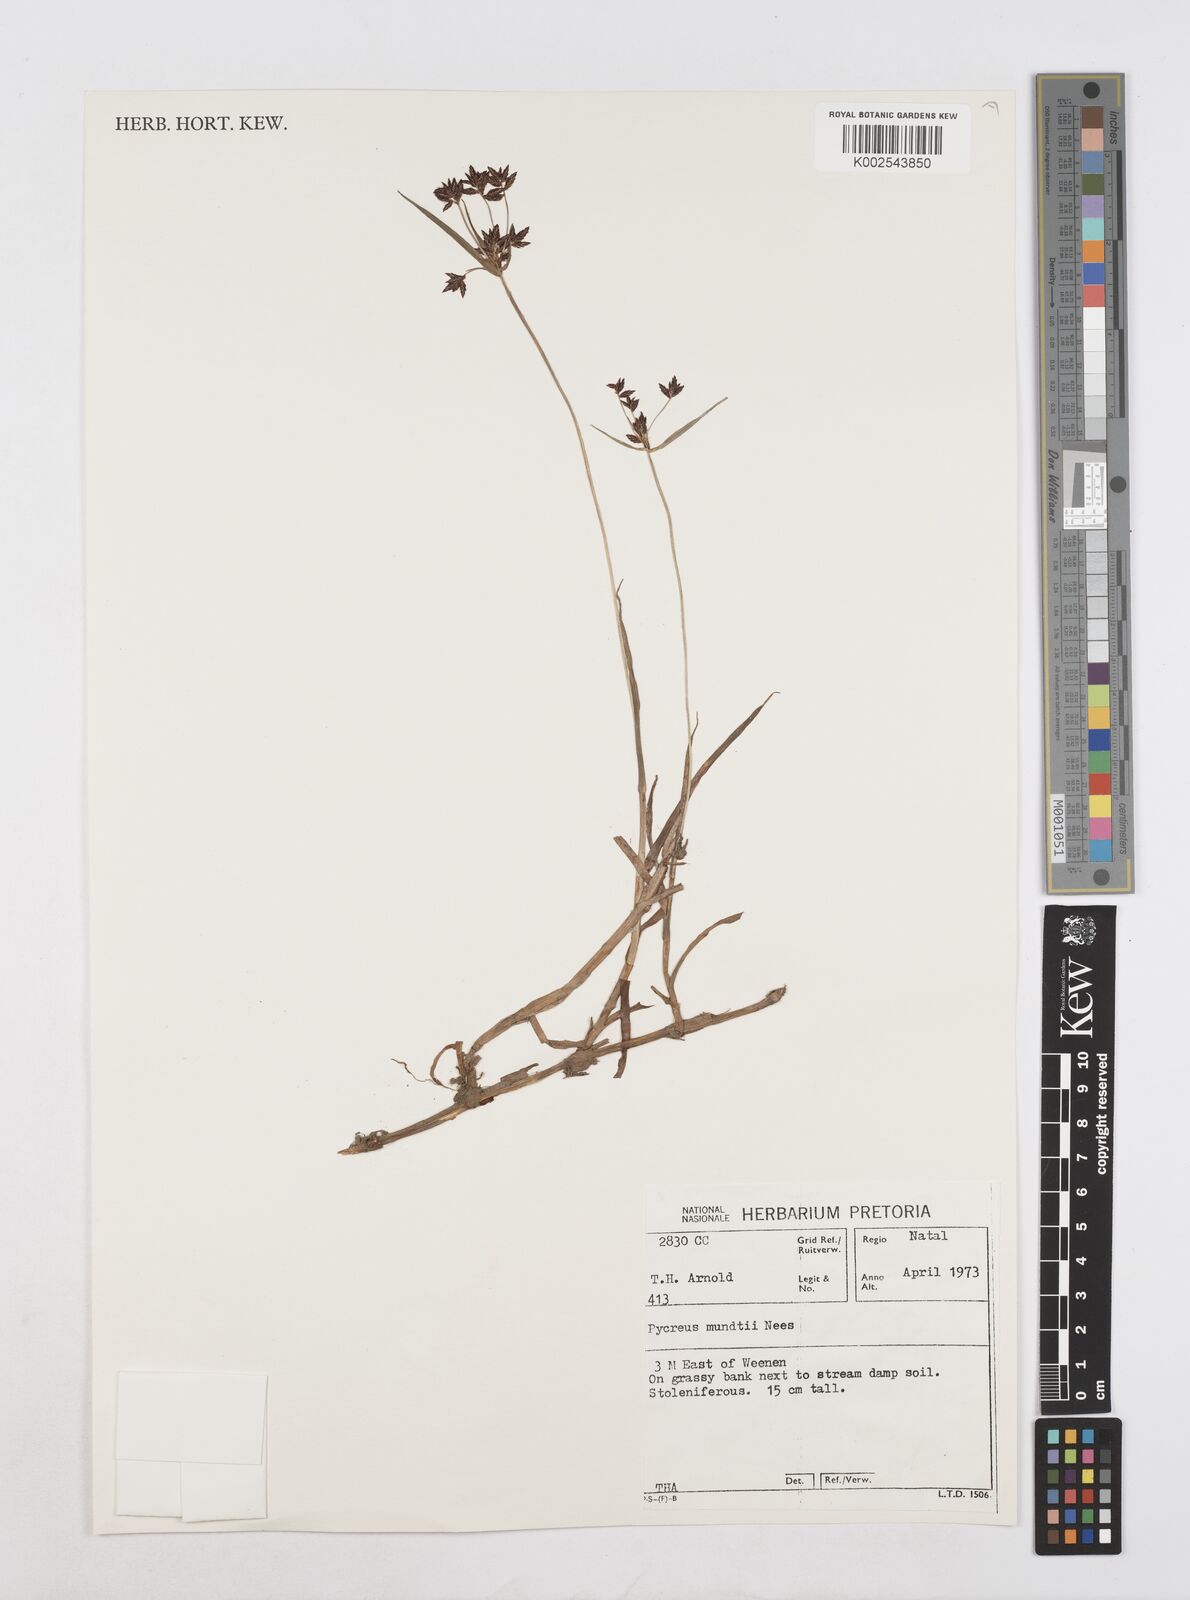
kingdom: Plantae
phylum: Tracheophyta
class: Liliopsida
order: Poales
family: Cyperaceae
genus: Cyperus
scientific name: Cyperus mundii
